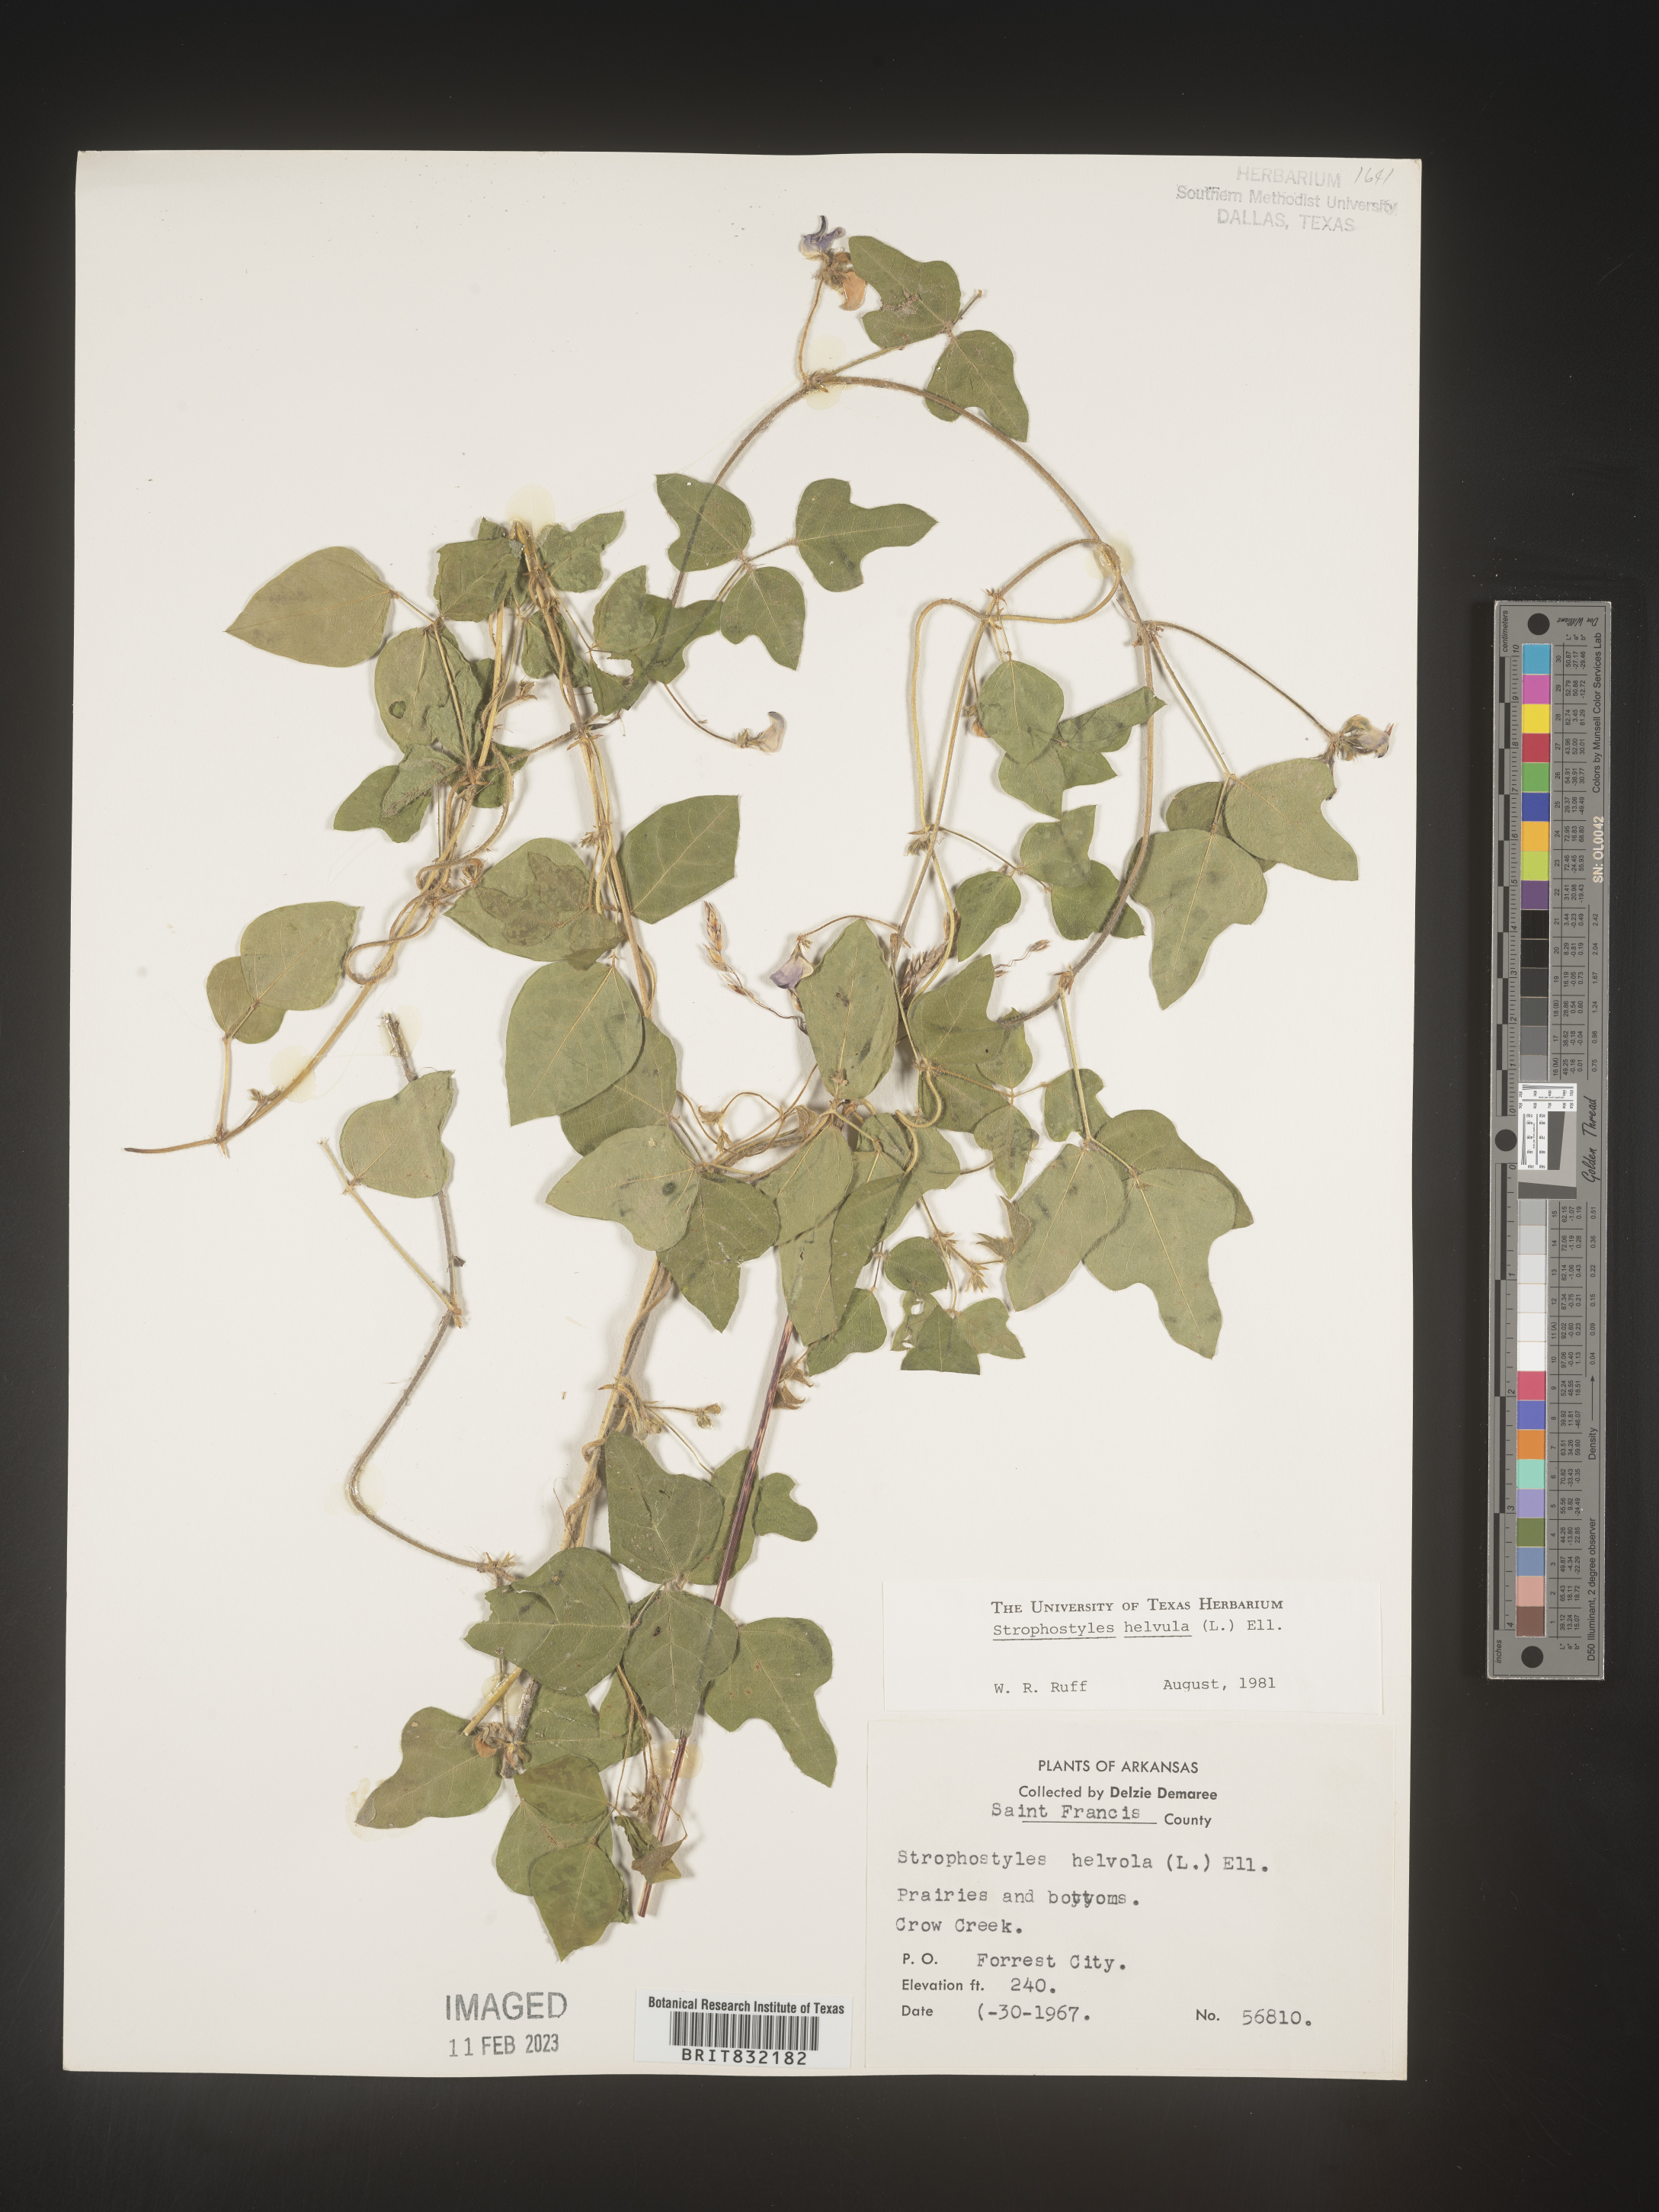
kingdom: Plantae
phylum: Tracheophyta
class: Magnoliopsida
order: Fabales
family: Fabaceae
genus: Strophostyles
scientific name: Strophostyles helvola
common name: Trailing wild bean
